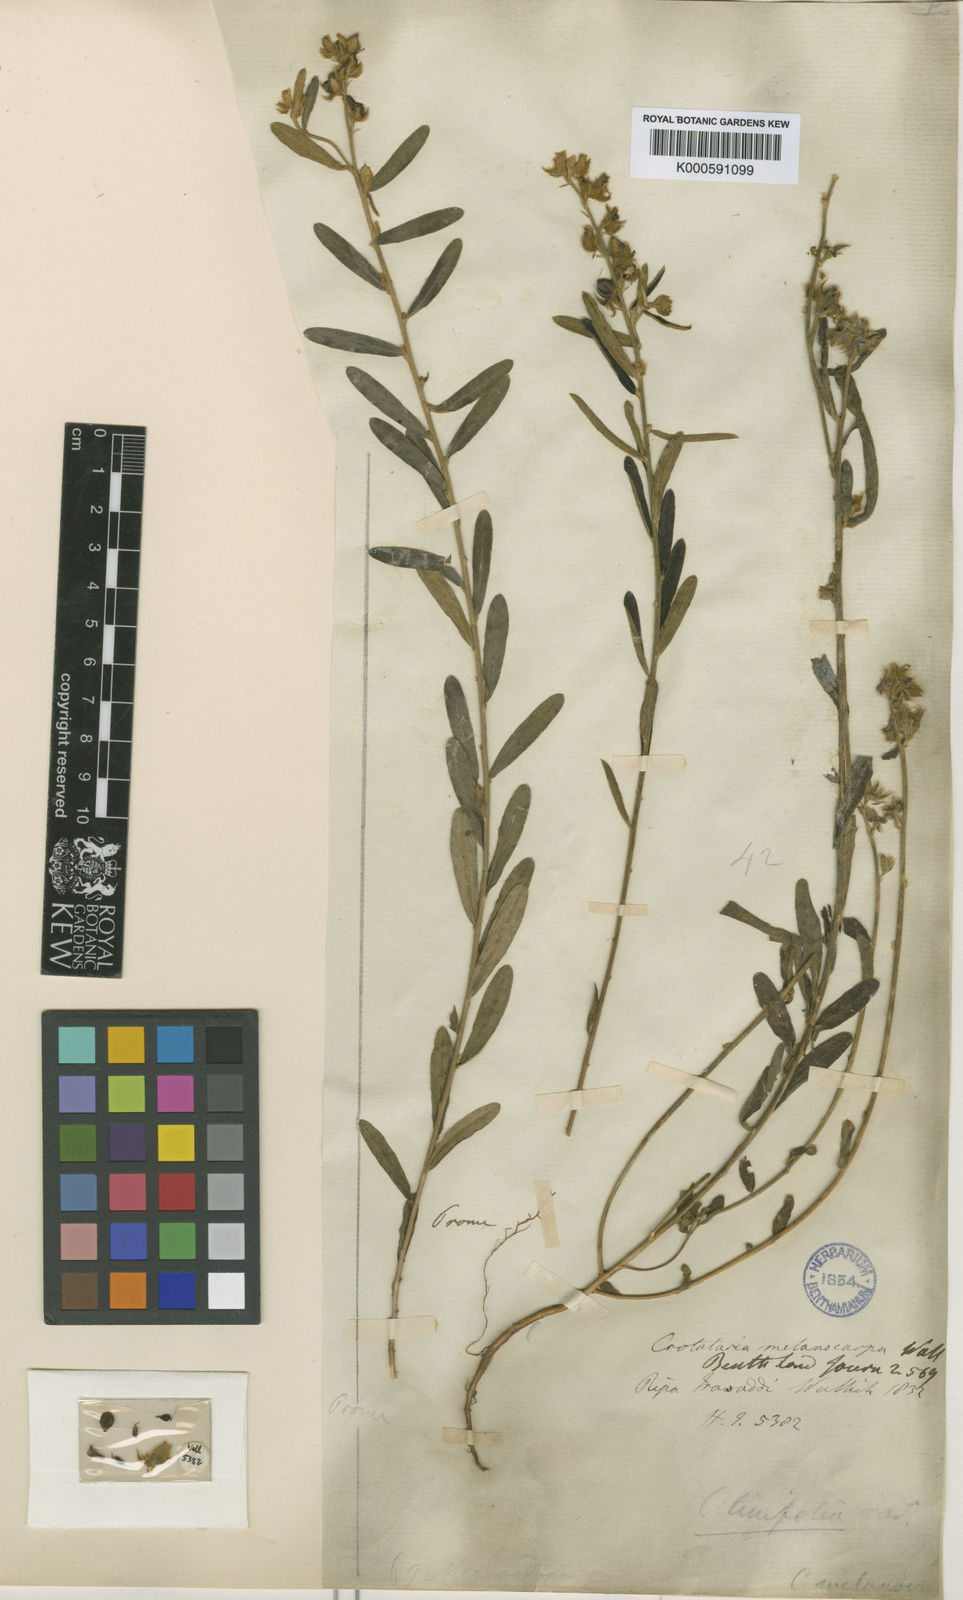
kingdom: Plantae
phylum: Tracheophyta
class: Magnoliopsida
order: Fabales
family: Fabaceae
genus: Crotalaria
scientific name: Crotalaria albida
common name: Taiwan crotalaria
